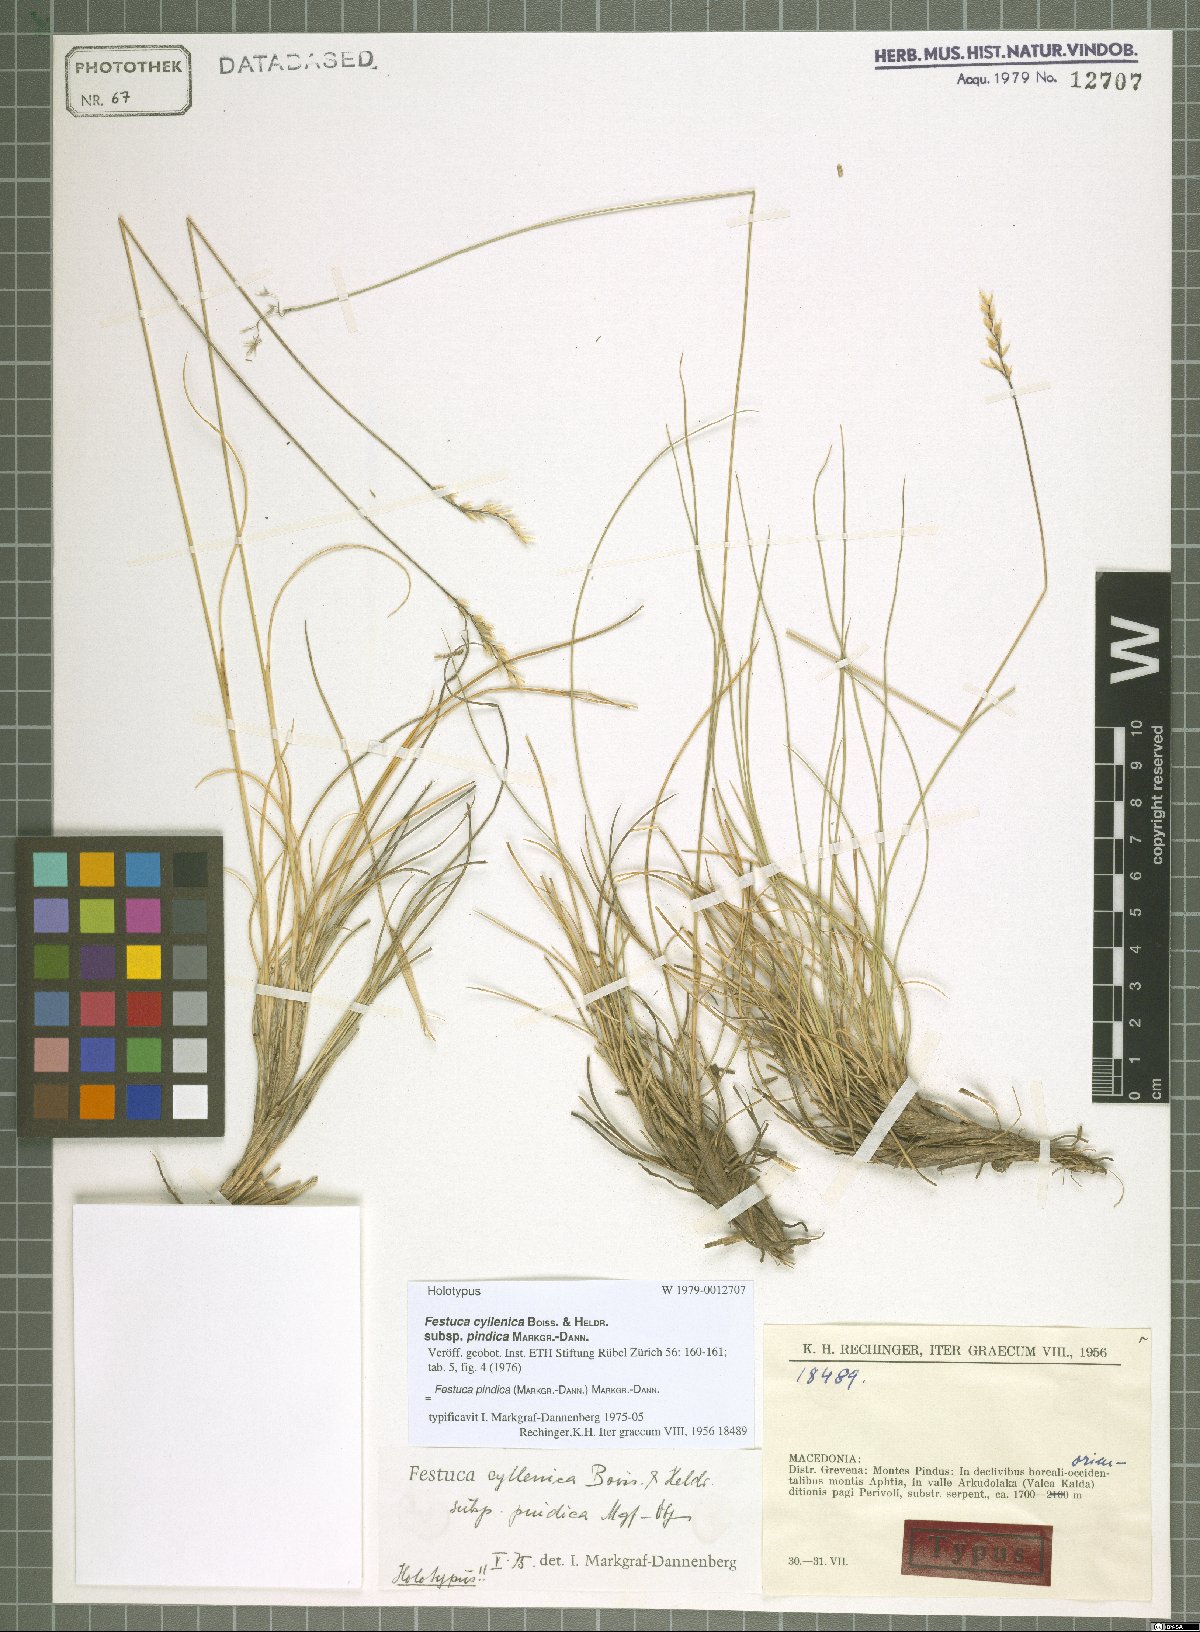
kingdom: Plantae
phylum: Tracheophyta
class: Liliopsida
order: Poales
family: Poaceae
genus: Festuca
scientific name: Festuca pindica
